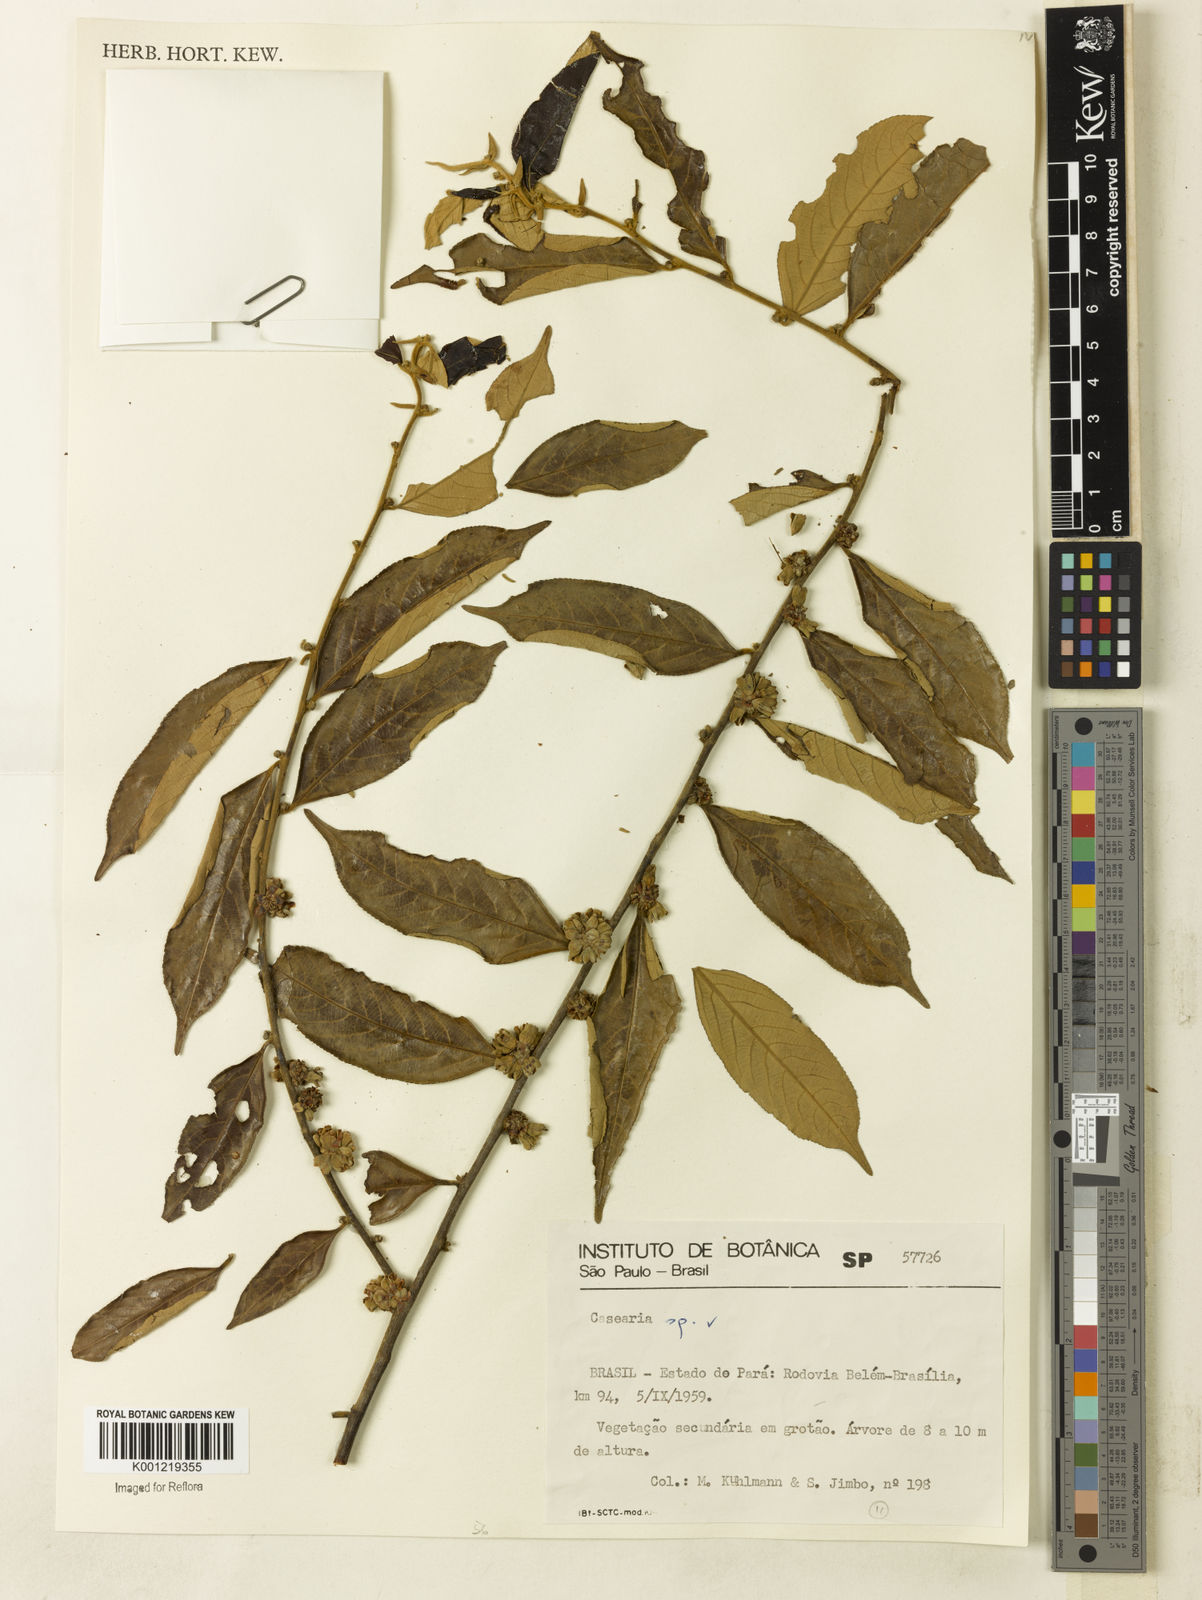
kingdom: Plantae
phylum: Tracheophyta
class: Magnoliopsida
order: Malpighiales
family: Salicaceae
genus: Casearia
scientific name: Casearia
